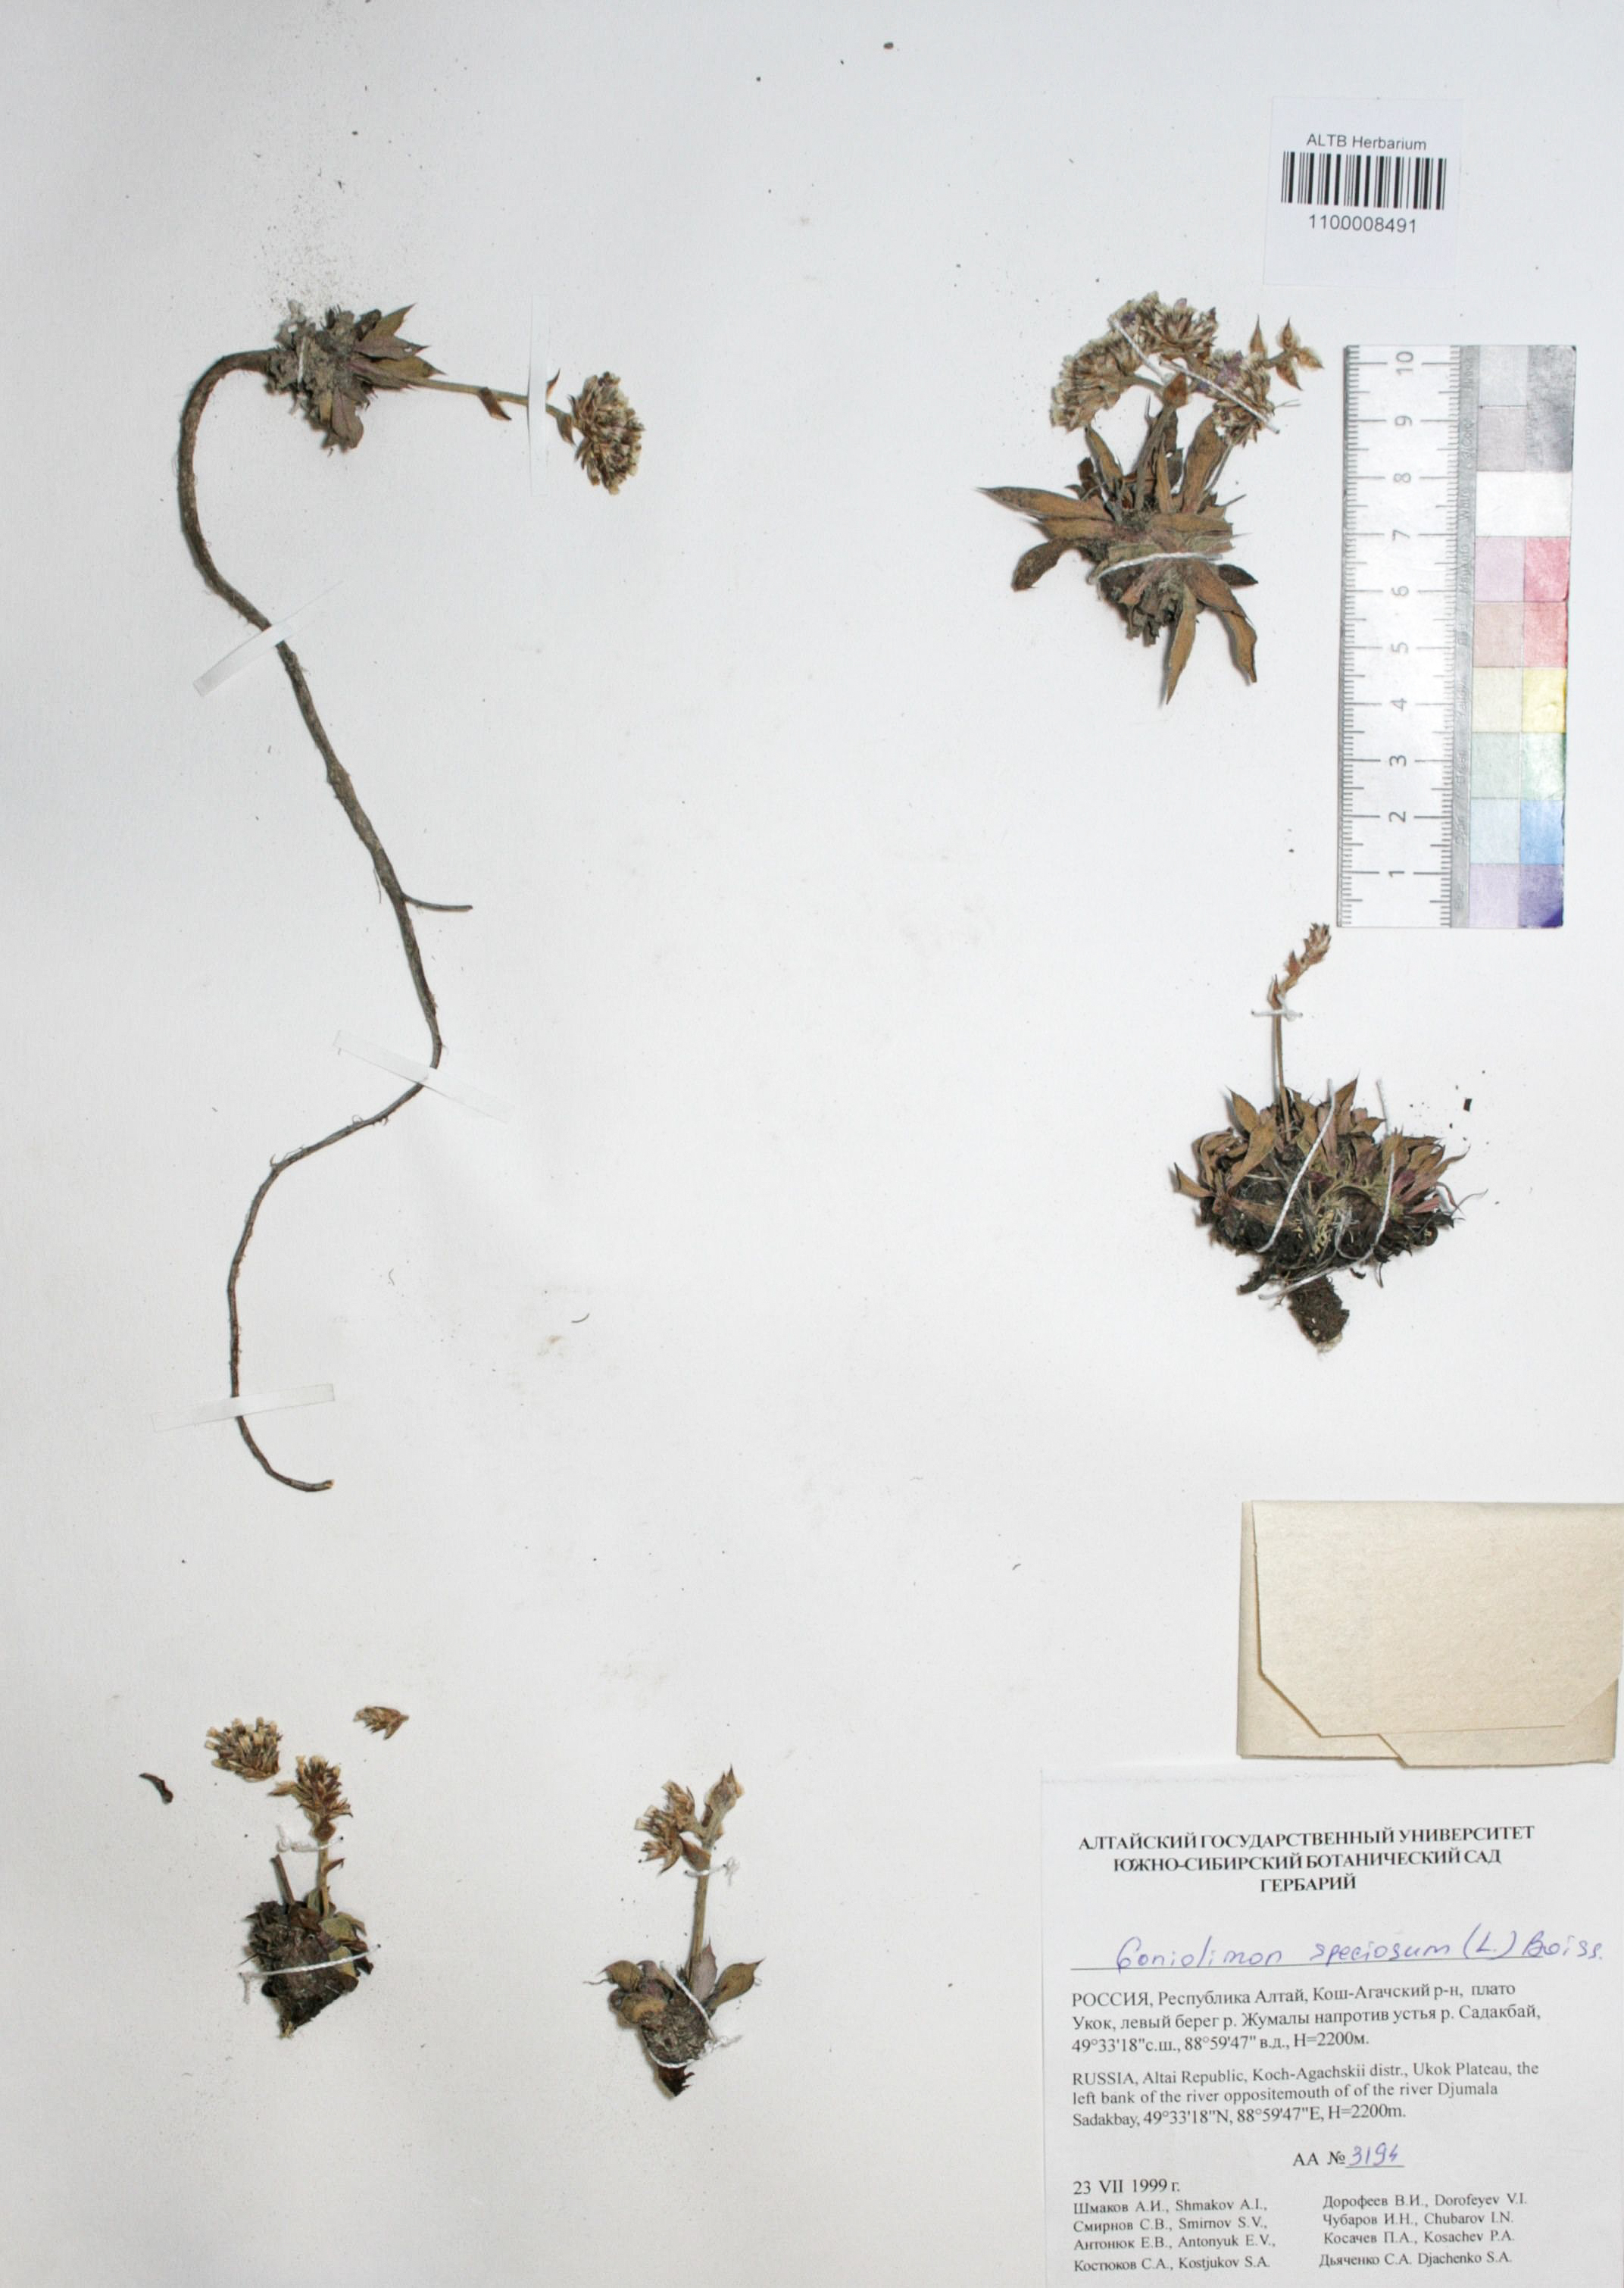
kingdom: Plantae
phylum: Tracheophyta
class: Magnoliopsida
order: Caryophyllales
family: Plumbaginaceae
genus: Goniolimon
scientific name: Goniolimon speciosum
